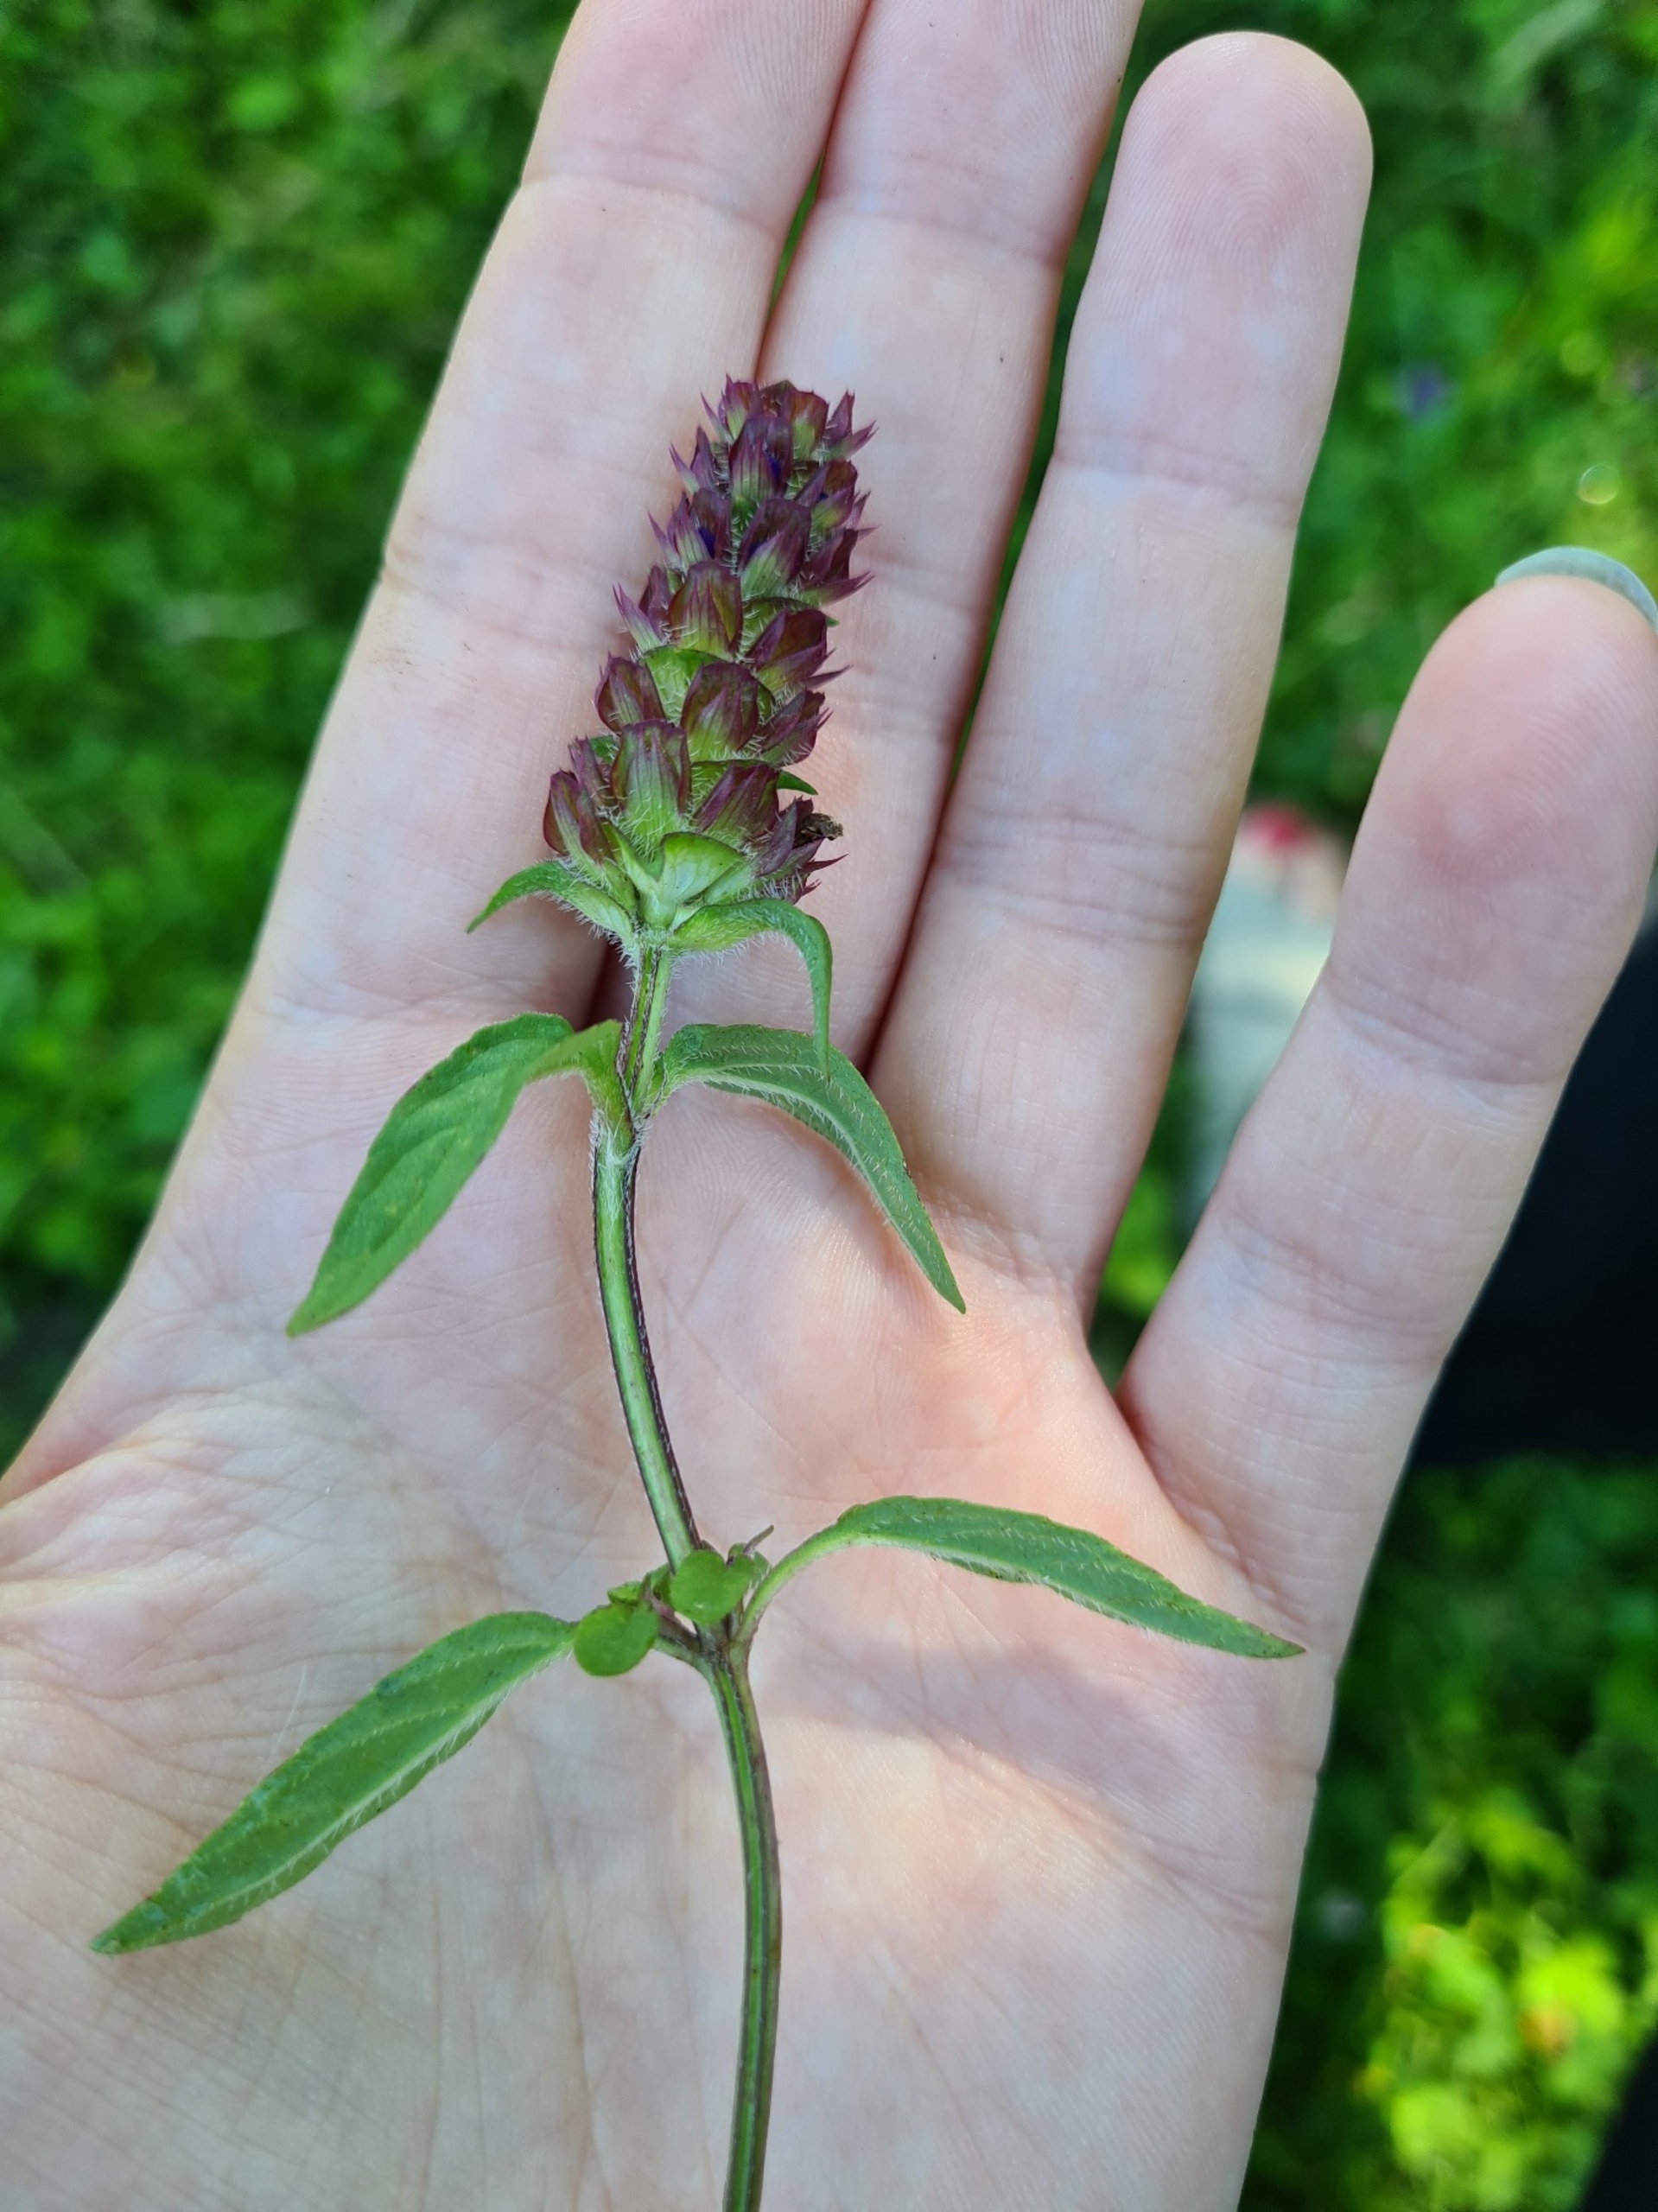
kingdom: Plantae
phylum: Tracheophyta
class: Magnoliopsida
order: Lamiales
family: Lamiaceae
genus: Prunella
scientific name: Prunella vulgaris
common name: Almindelig brunelle
